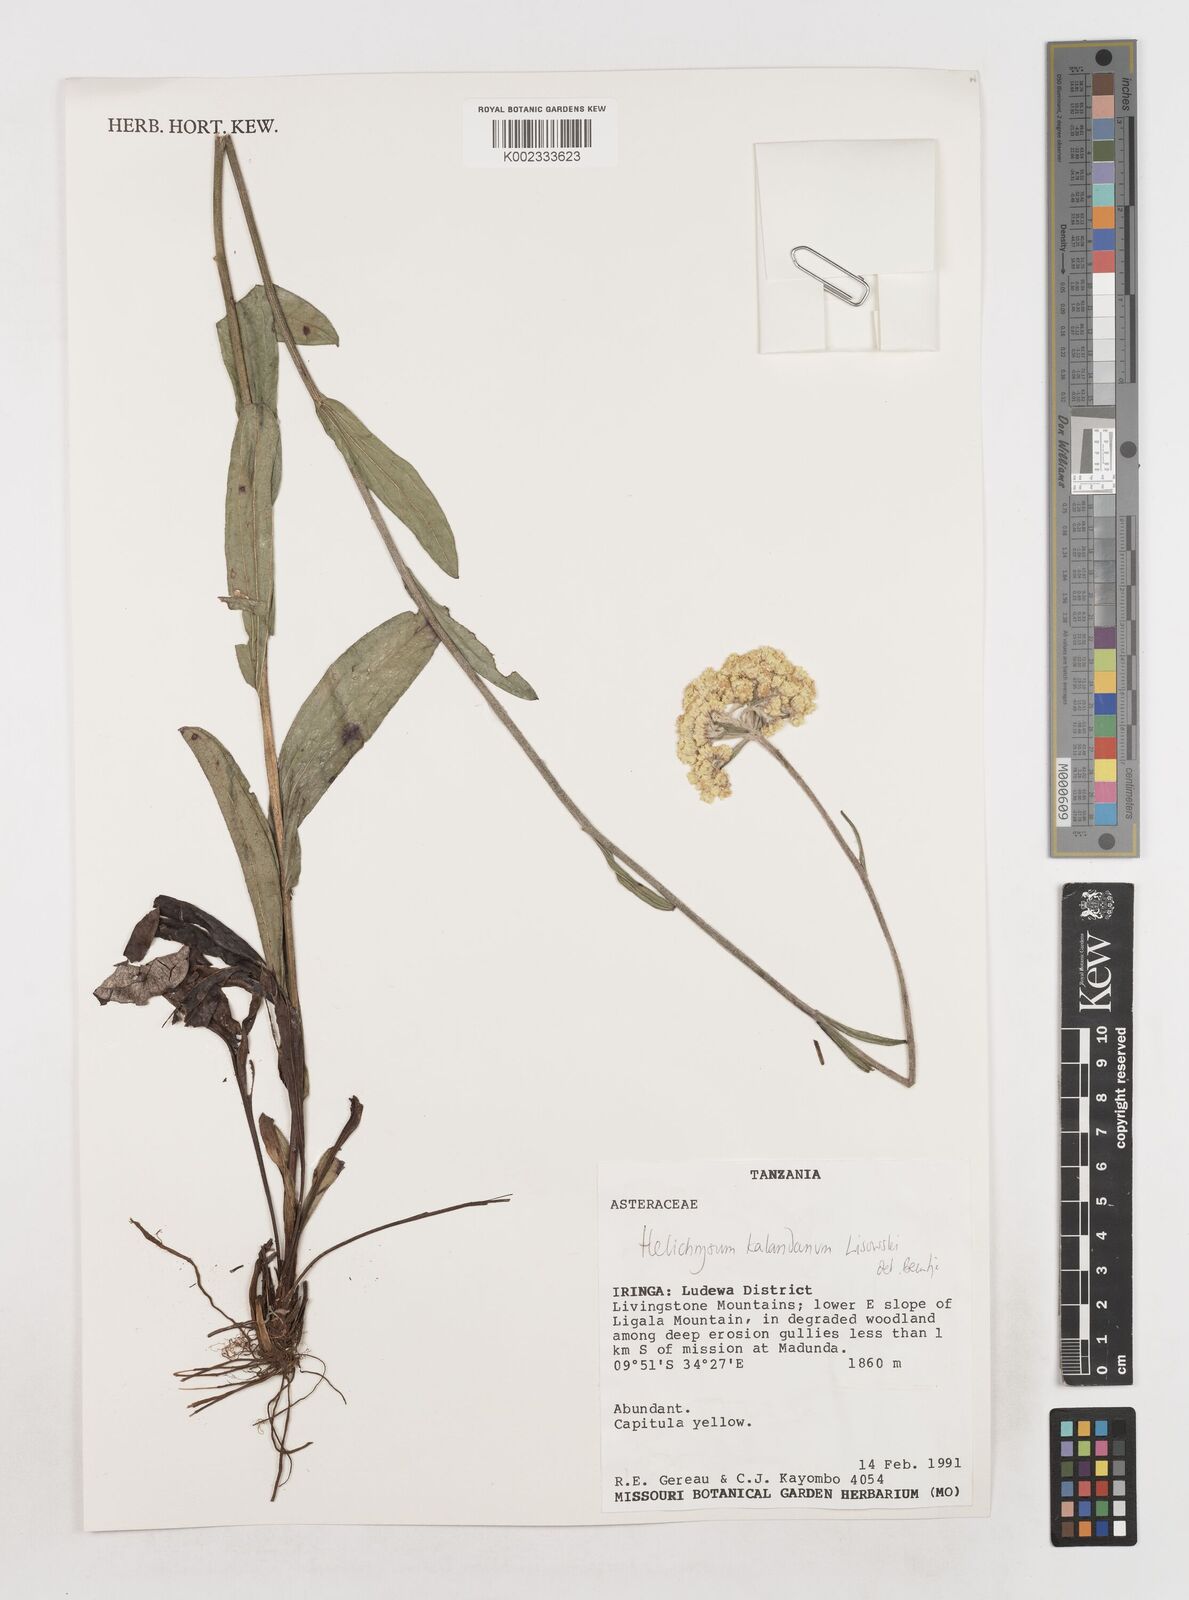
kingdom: Plantae
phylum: Tracheophyta
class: Magnoliopsida
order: Asterales
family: Asteraceae
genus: Helichrysum
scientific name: Helichrysum kalandanum
